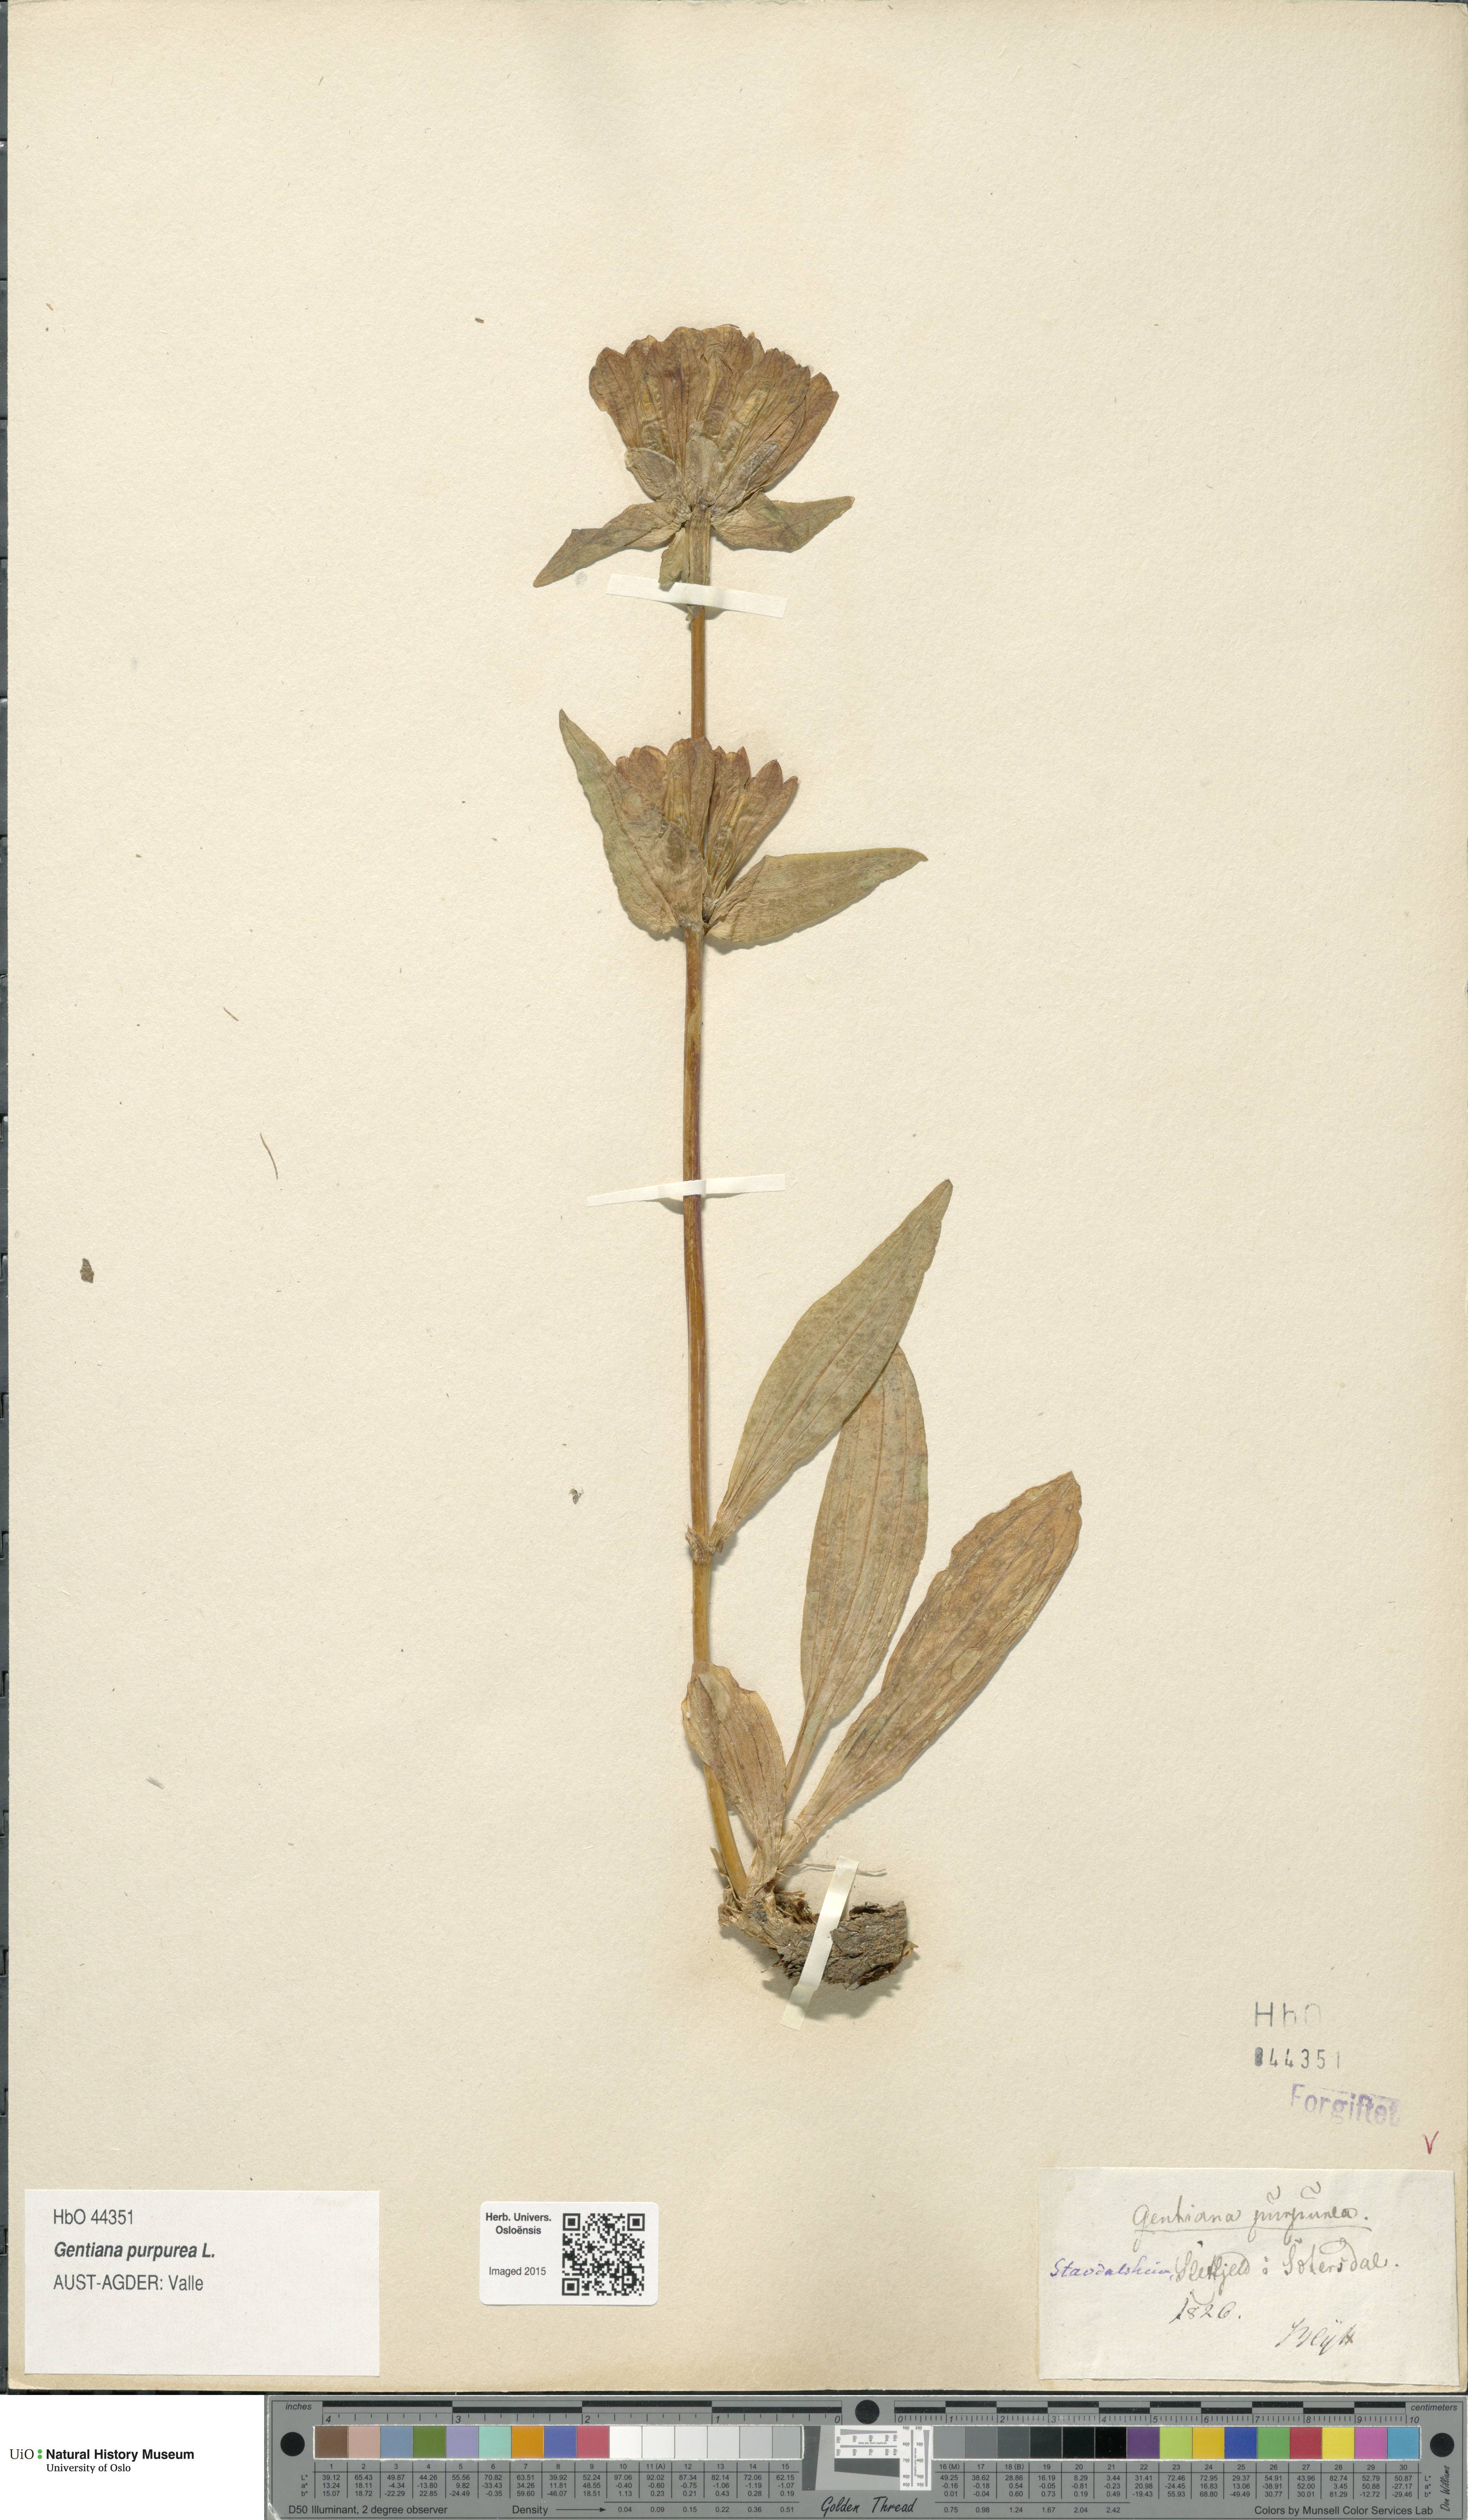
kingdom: Plantae
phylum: Tracheophyta
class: Magnoliopsida
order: Gentianales
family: Gentianaceae
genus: Gentiana
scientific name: Gentiana purpurea
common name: Purple gentian
